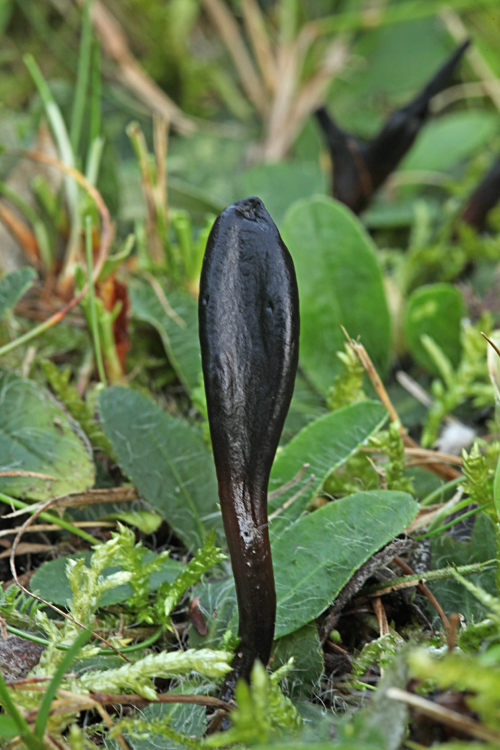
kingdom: Fungi
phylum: Ascomycota
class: Geoglossomycetes
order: Geoglossales
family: Geoglossaceae
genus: Glutinoglossum
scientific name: Glutinoglossum glutinosum
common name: slimet jordtunge
